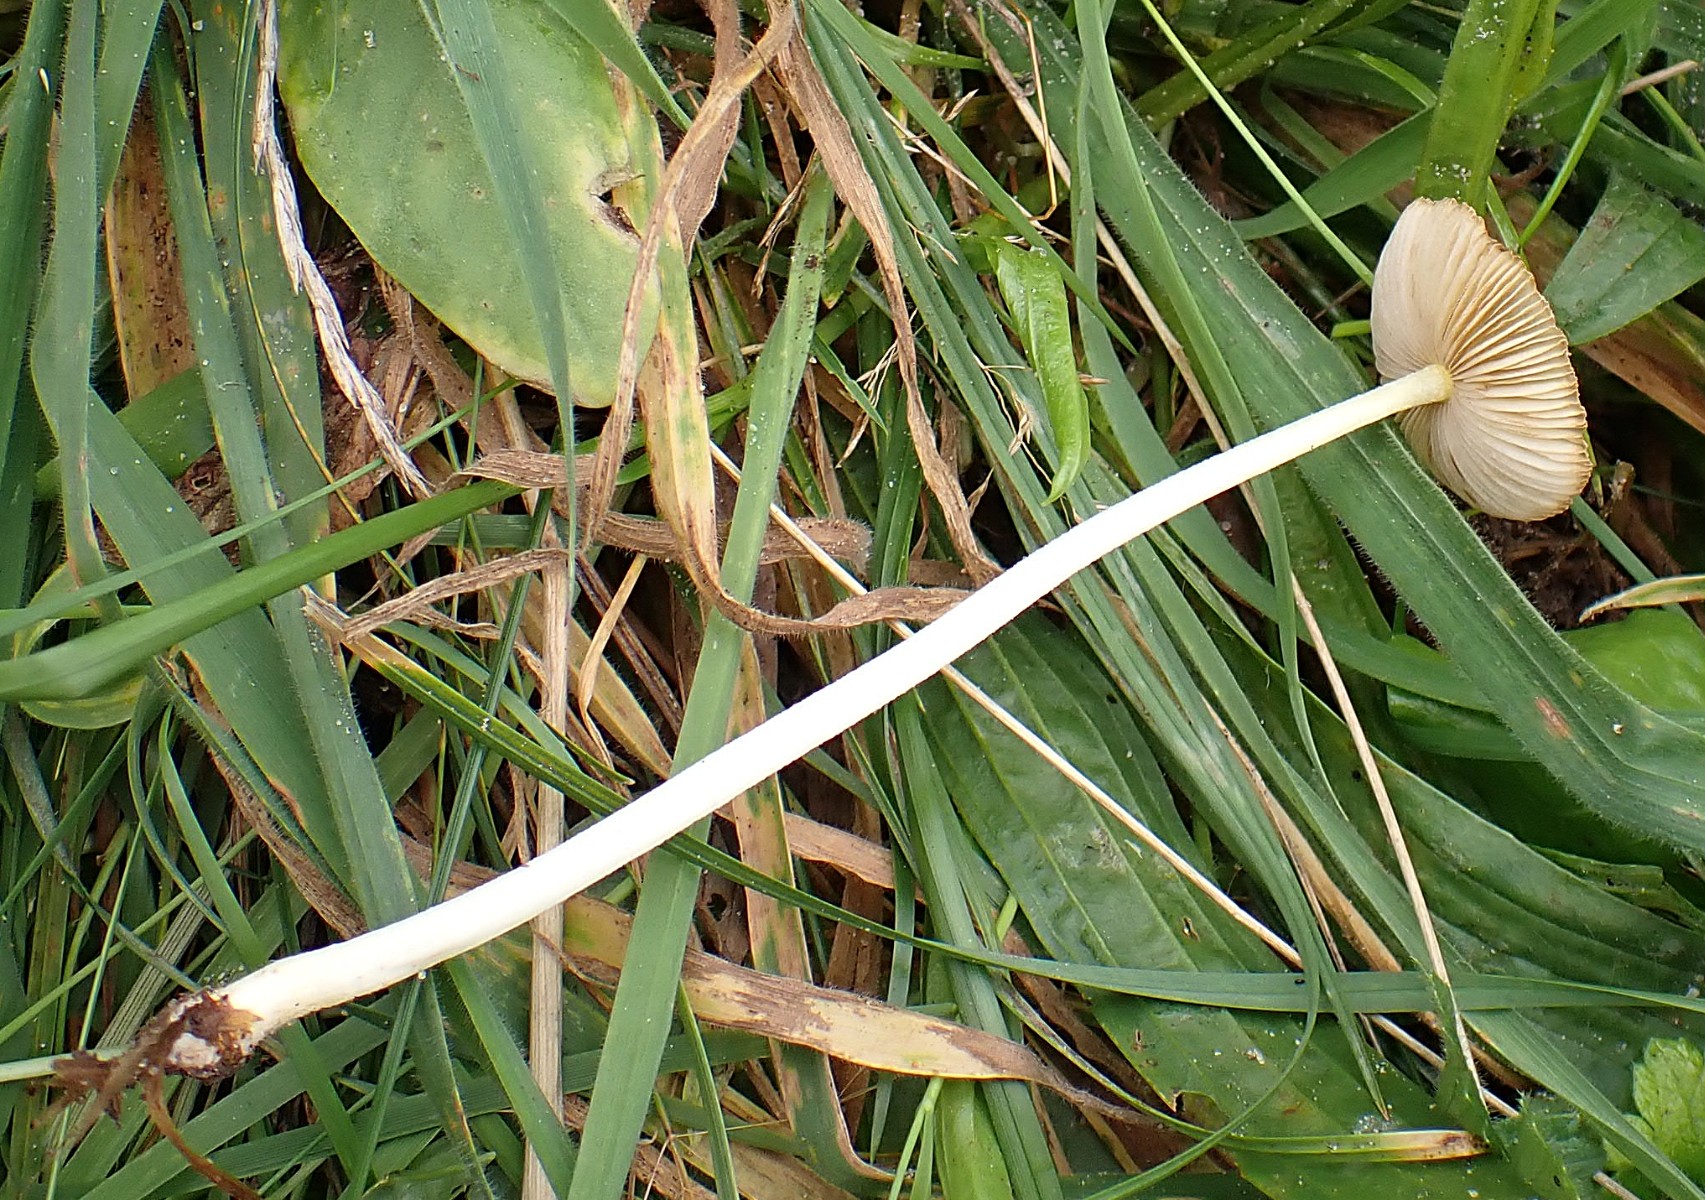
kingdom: Fungi
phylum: Basidiomycota
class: Agaricomycetes
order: Agaricales
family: Bolbitiaceae
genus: Bolbitius
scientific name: Bolbitius titubans
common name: almindelig gulhat
